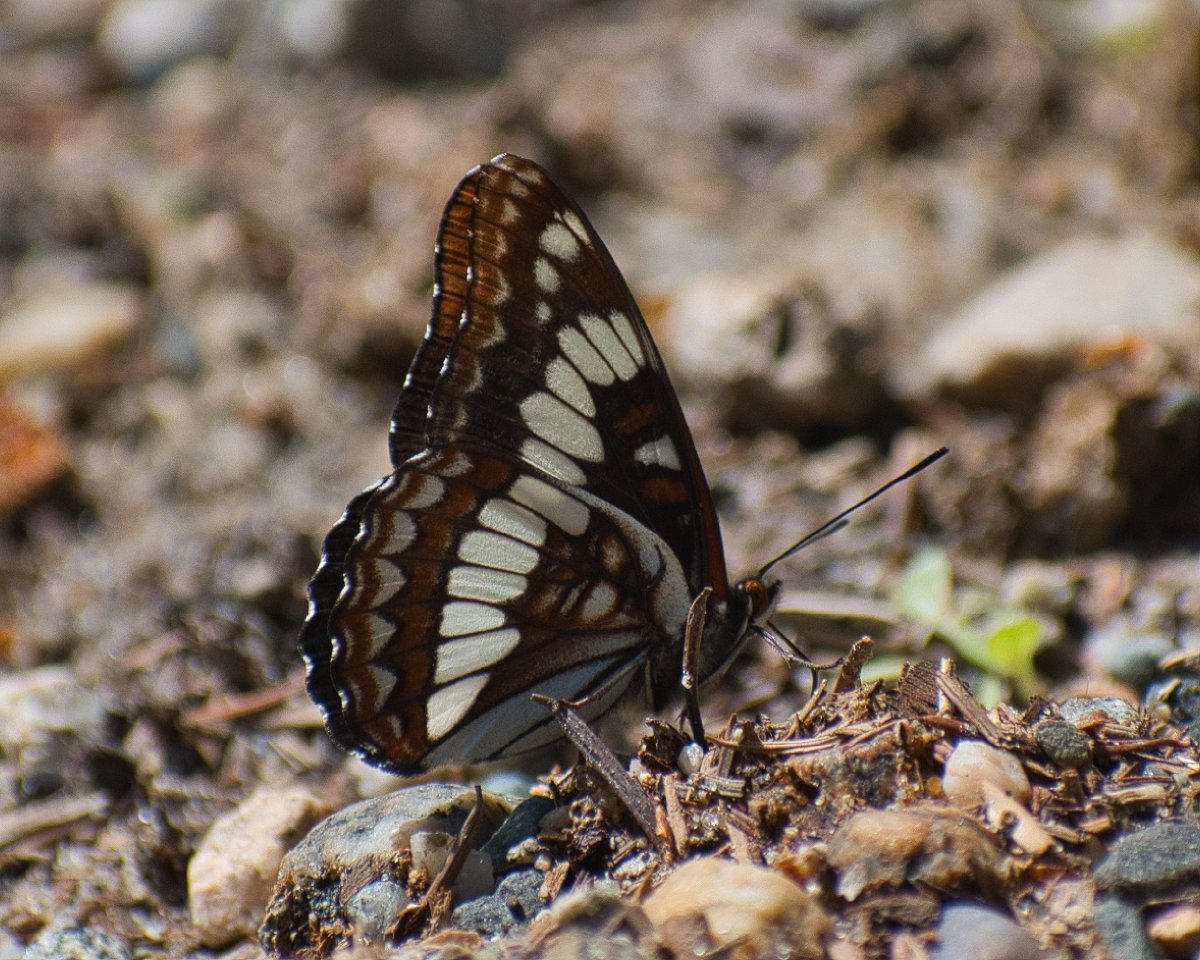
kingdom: Animalia
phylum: Arthropoda
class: Insecta
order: Lepidoptera
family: Nymphalidae
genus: Limenitis
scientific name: Limenitis lorquini
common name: Lorquin's Admiral
